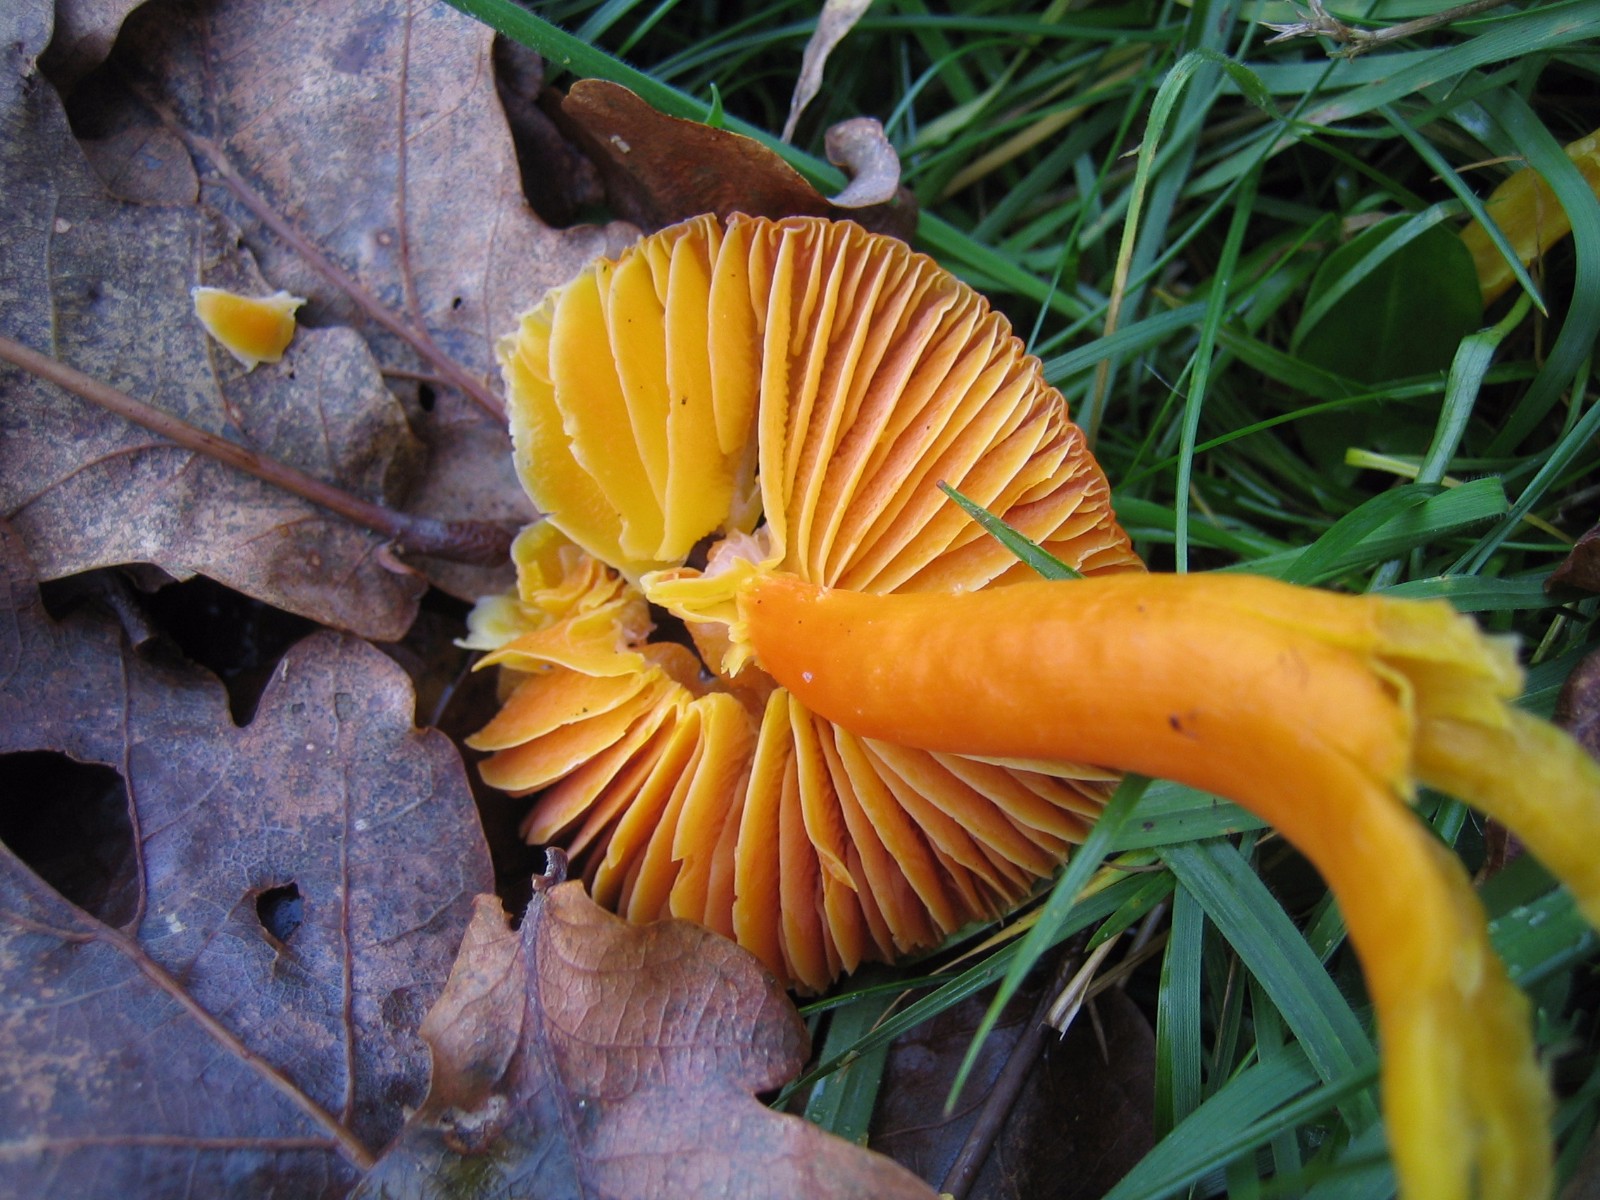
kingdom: Fungi
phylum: Basidiomycota
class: Agaricomycetes
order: Agaricales
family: Hygrophoraceae
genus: Hygrocybe
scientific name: Hygrocybe coccinea
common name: cinnober-vokshat
